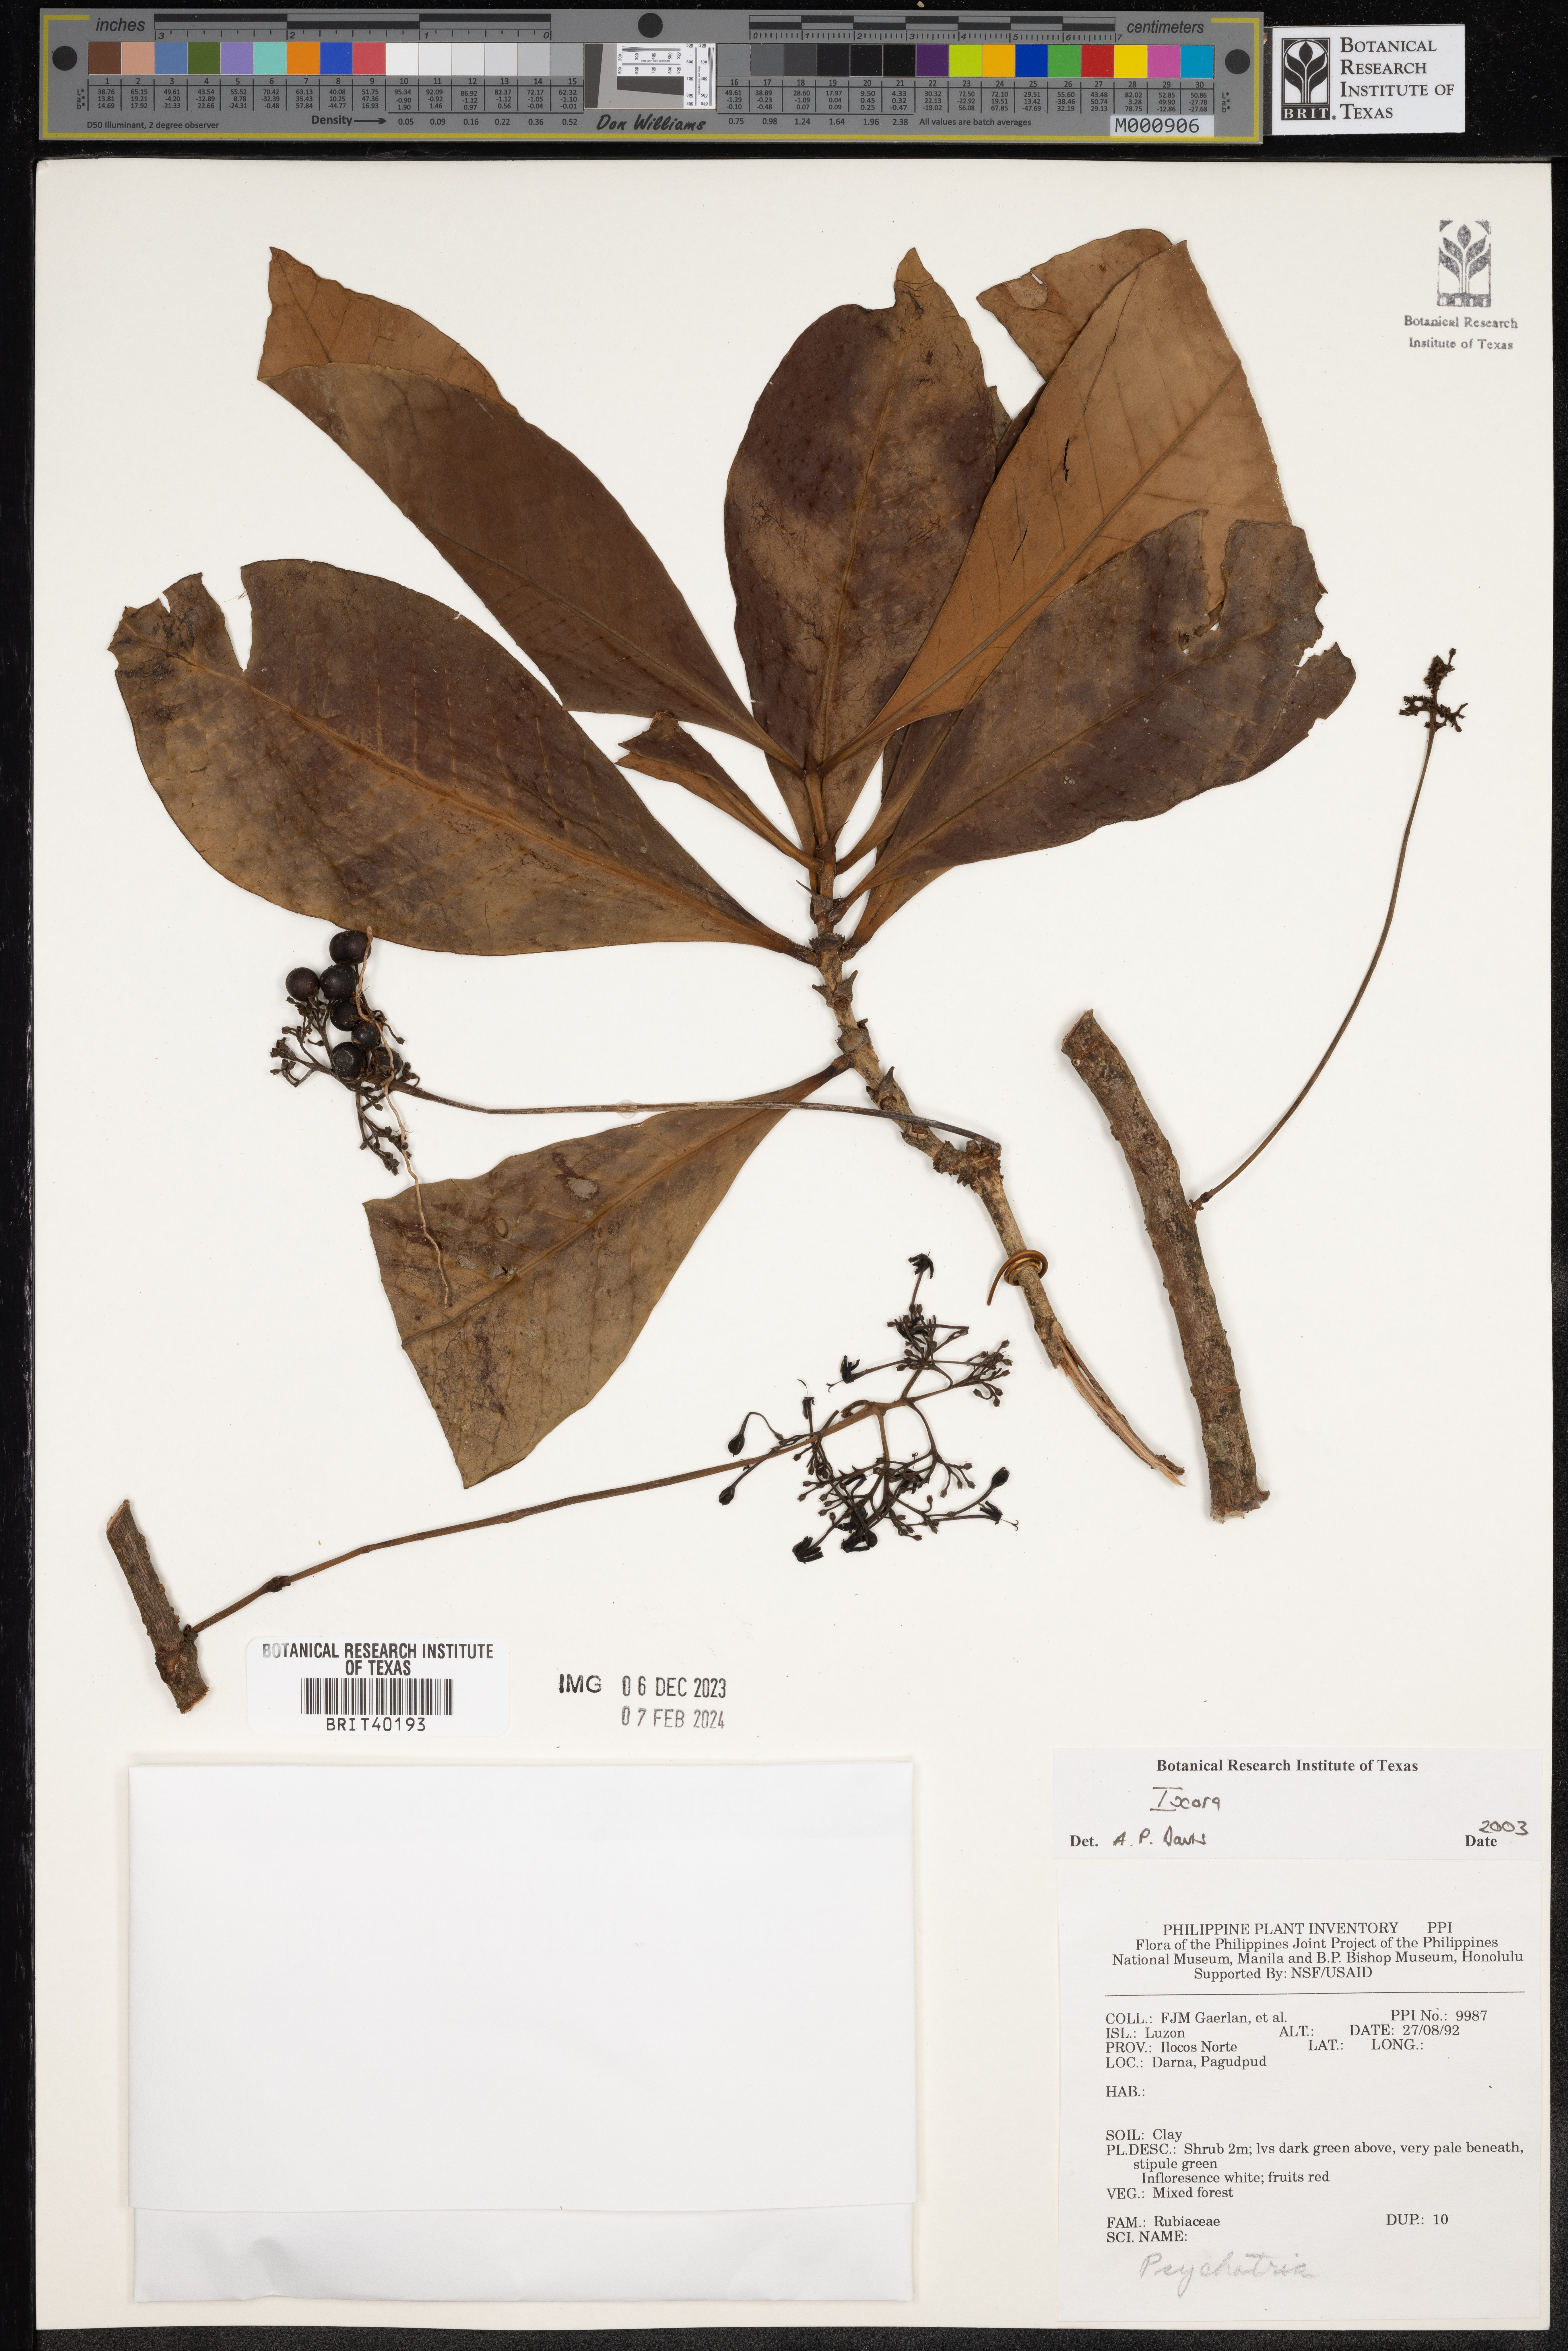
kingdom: Plantae
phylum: Tracheophyta
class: Magnoliopsida
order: Gentianales
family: Rubiaceae
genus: Ixora
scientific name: Ixora
